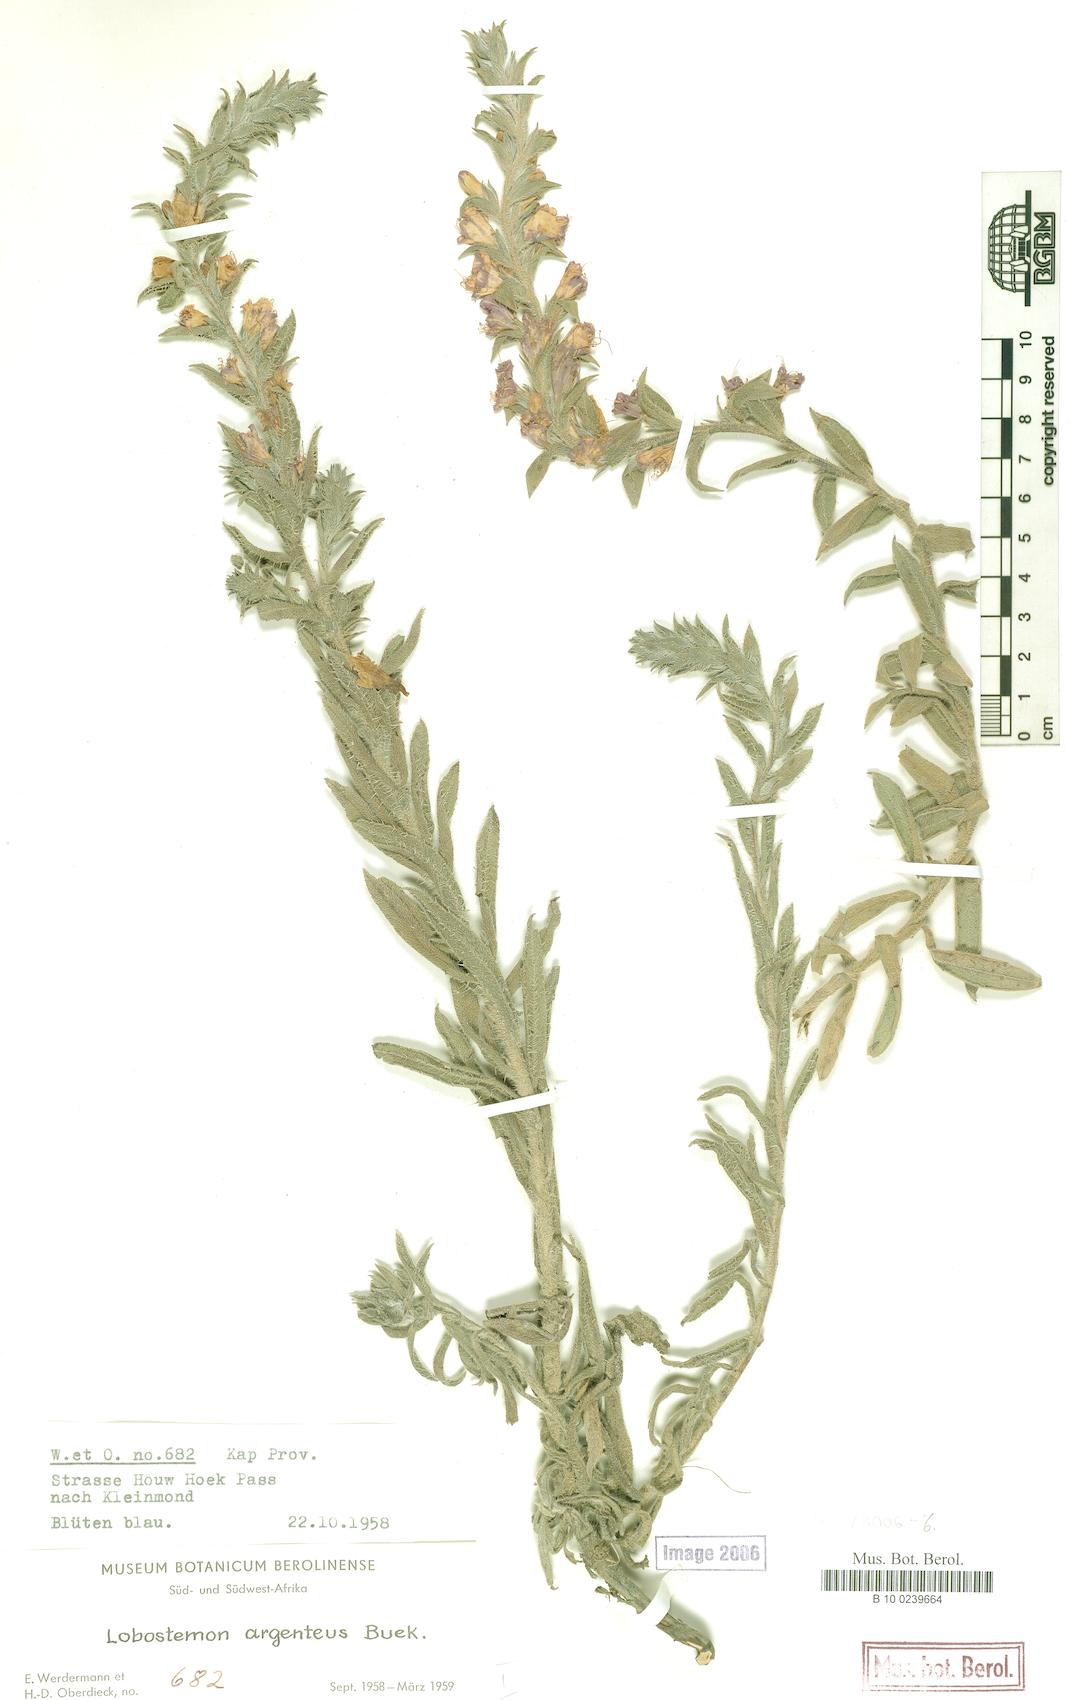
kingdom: Plantae
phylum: Tracheophyta
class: Magnoliopsida
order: Boraginales
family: Boraginaceae
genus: Lobostemon
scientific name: Lobostemon argenteus
